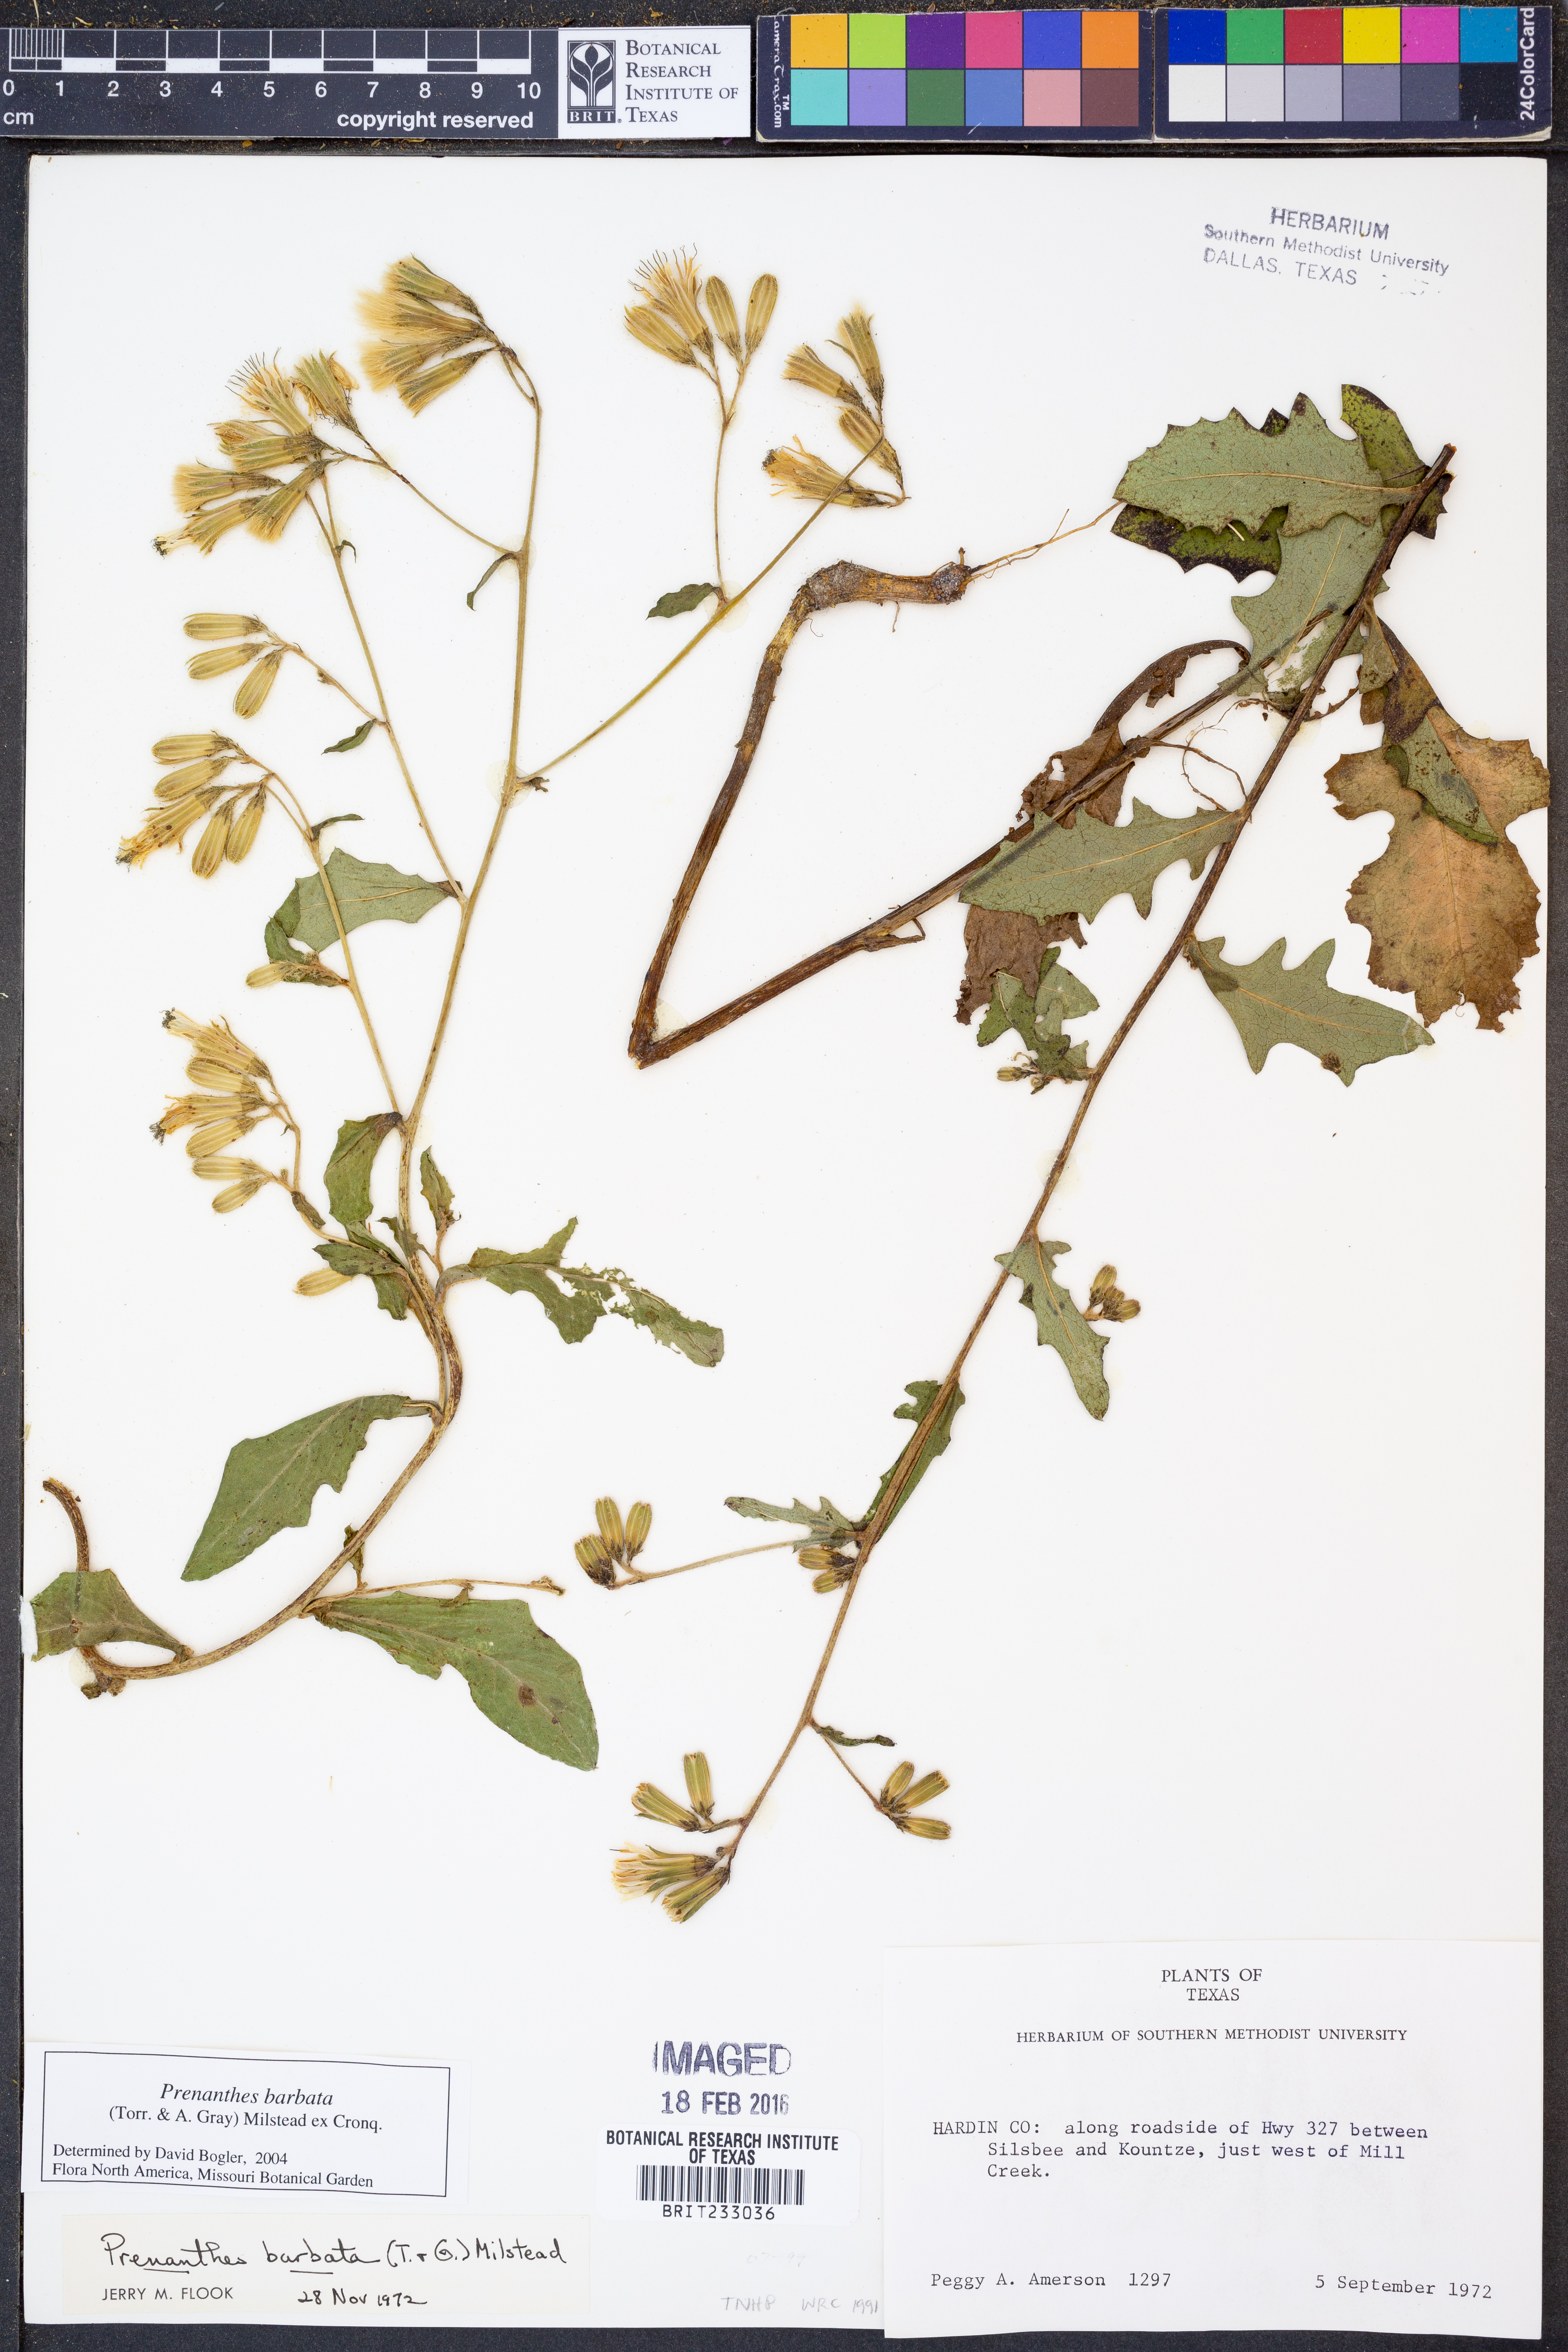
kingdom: Plantae
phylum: Tracheophyta
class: Magnoliopsida
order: Asterales
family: Asteraceae
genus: Nabalus
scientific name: Nabalus barbata
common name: Barbed rattlesnakeroot
